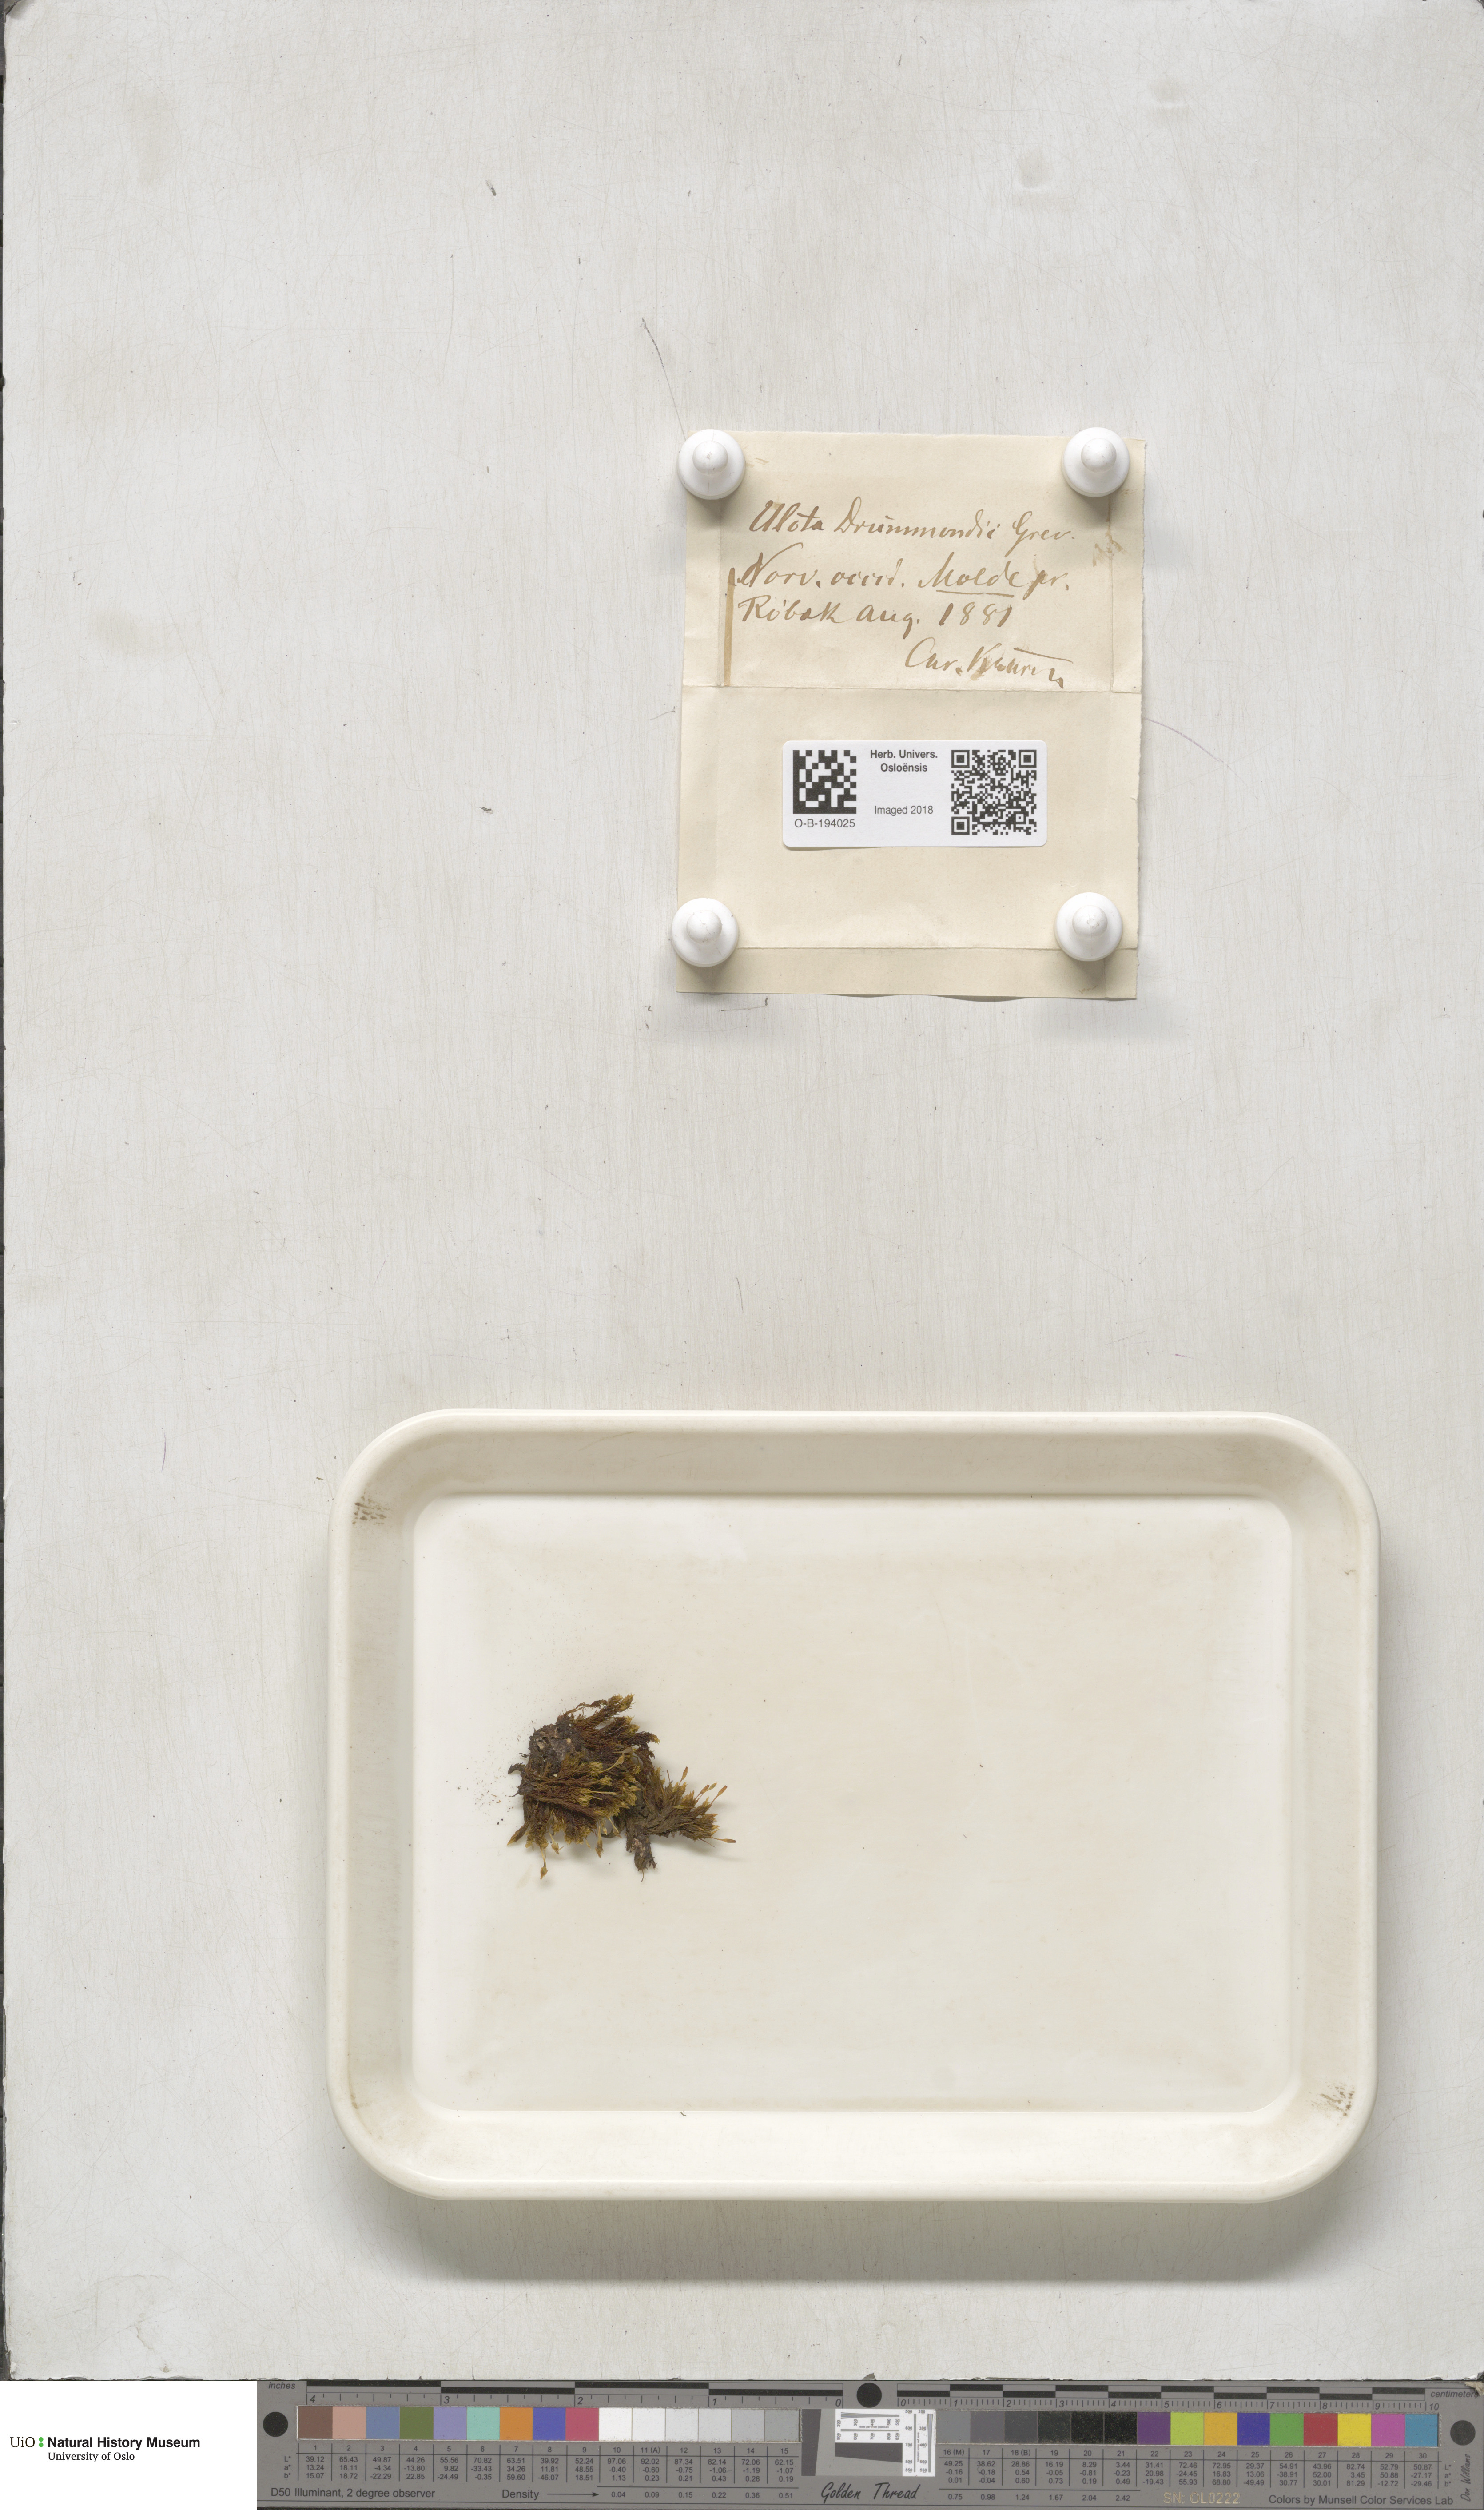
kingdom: Plantae
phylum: Bryophyta
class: Bryopsida
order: Orthotrichales
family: Orthotrichaceae
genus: Ulota
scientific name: Ulota drummondii
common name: Drummond's pincushion moss
